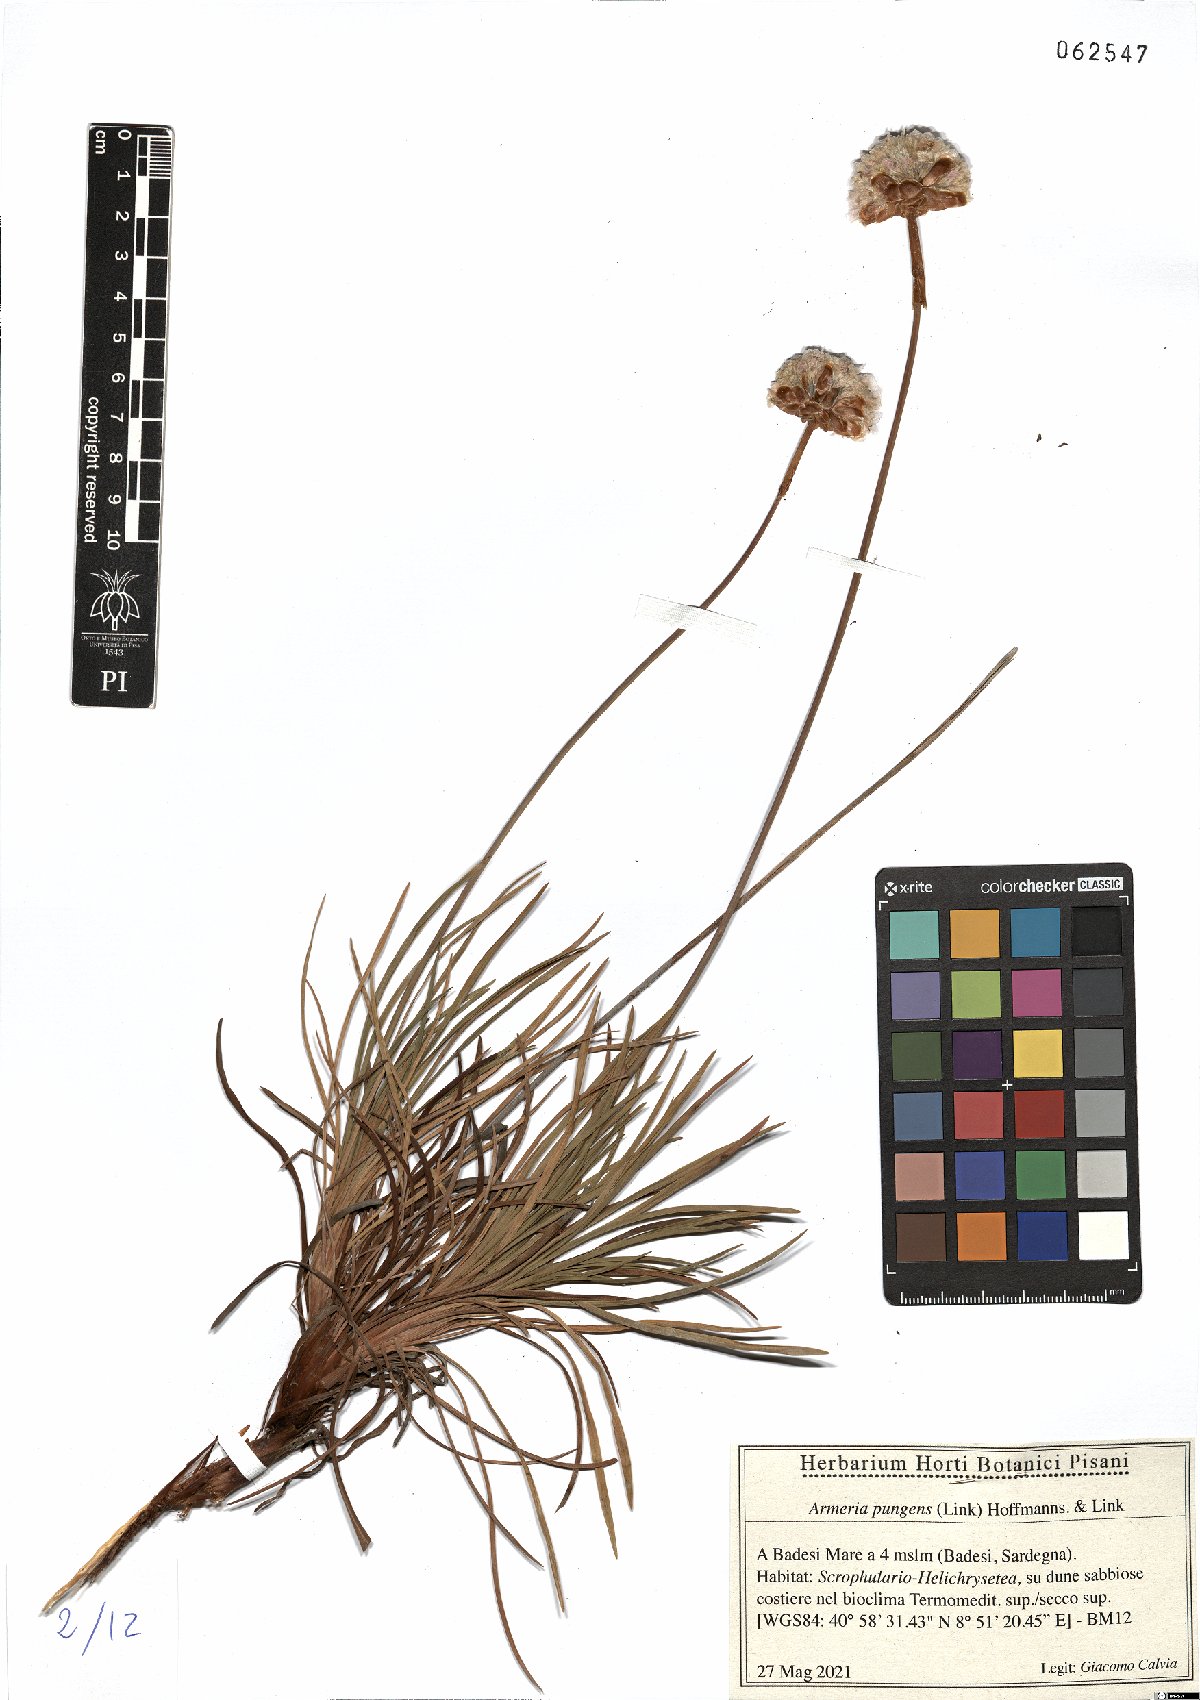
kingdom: Plantae
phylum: Tracheophyta
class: Magnoliopsida
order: Caryophyllales
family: Plumbaginaceae
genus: Armeria
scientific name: Armeria pungens
